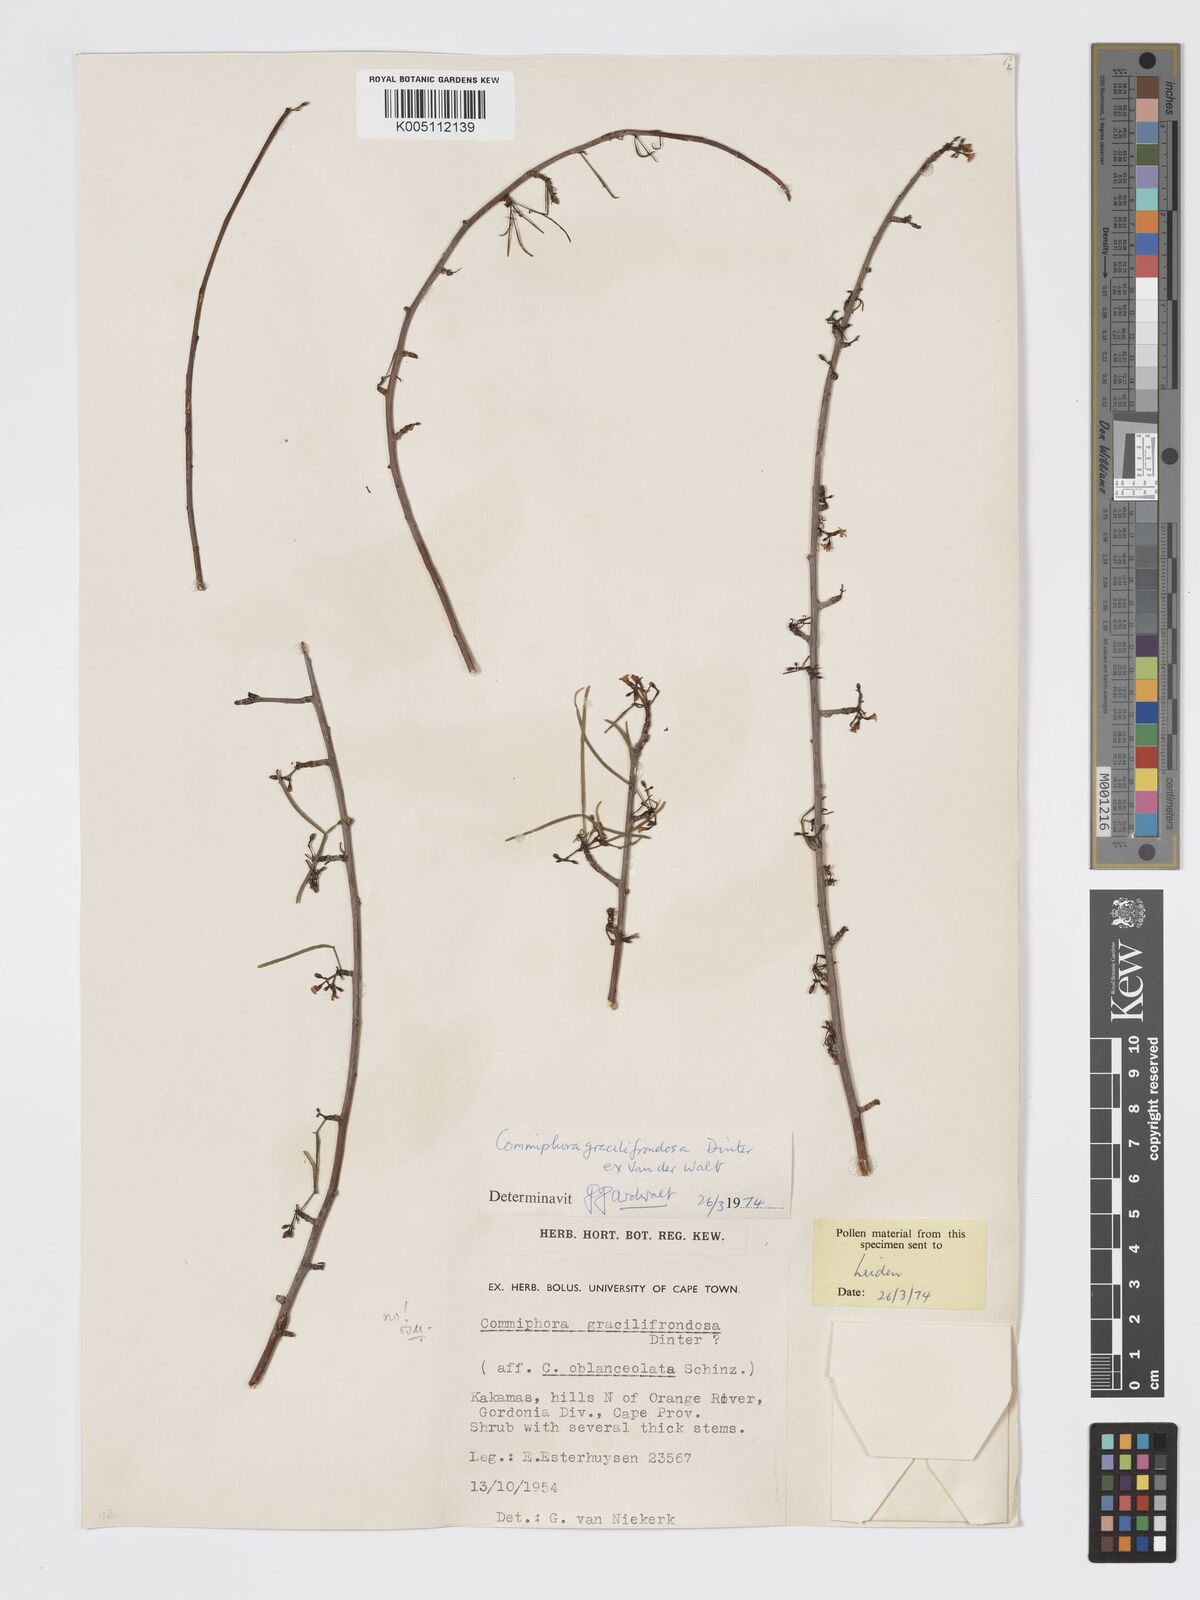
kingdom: Plantae
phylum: Tracheophyta
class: Magnoliopsida
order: Sapindales
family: Burseraceae
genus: Commiphora
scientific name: Commiphora gracilifrondosa
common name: Karee-leaved commiphora
